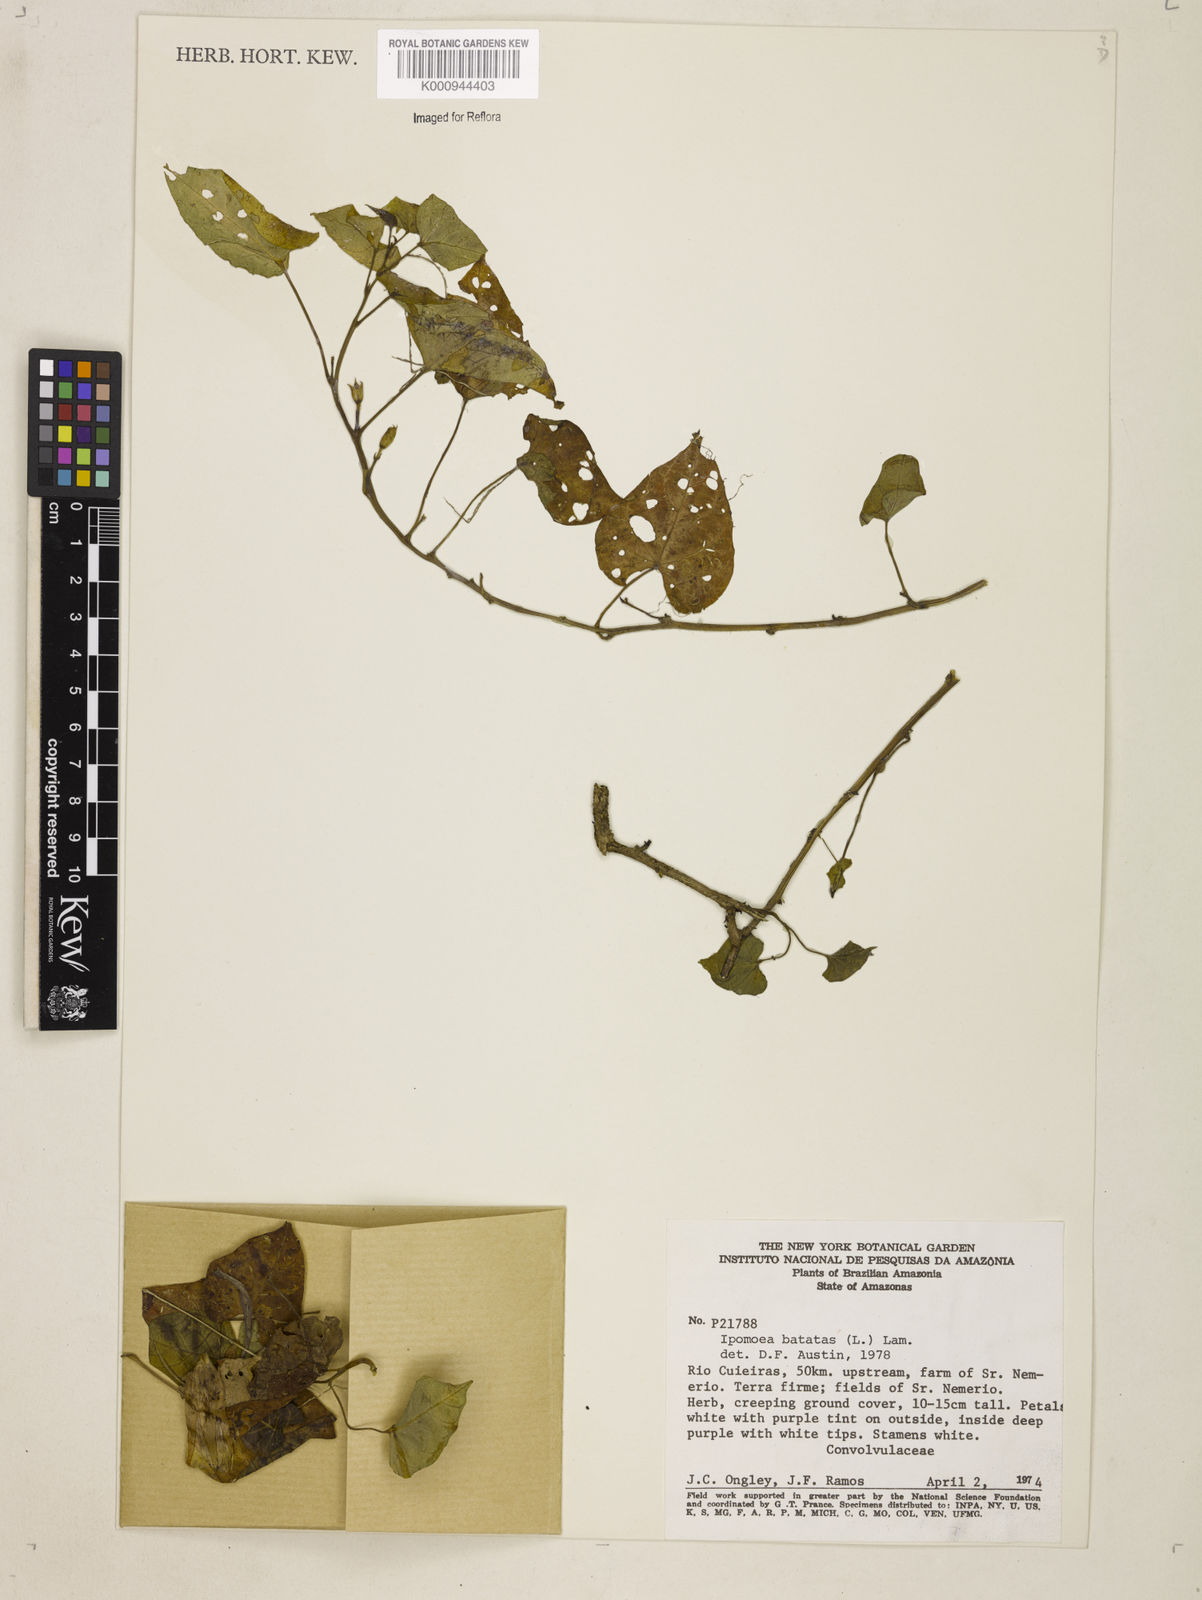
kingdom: Plantae
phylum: Tracheophyta
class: Magnoliopsida
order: Solanales
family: Convolvulaceae
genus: Ipomoea
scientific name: Ipomoea batatas
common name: Sweet-potato
